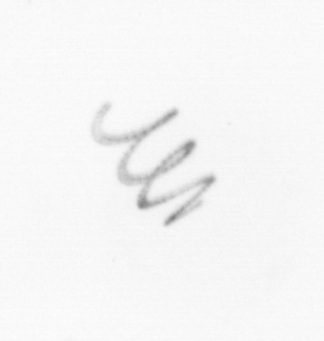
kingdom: Chromista
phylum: Ochrophyta
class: Bacillariophyceae
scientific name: Bacillariophyceae
